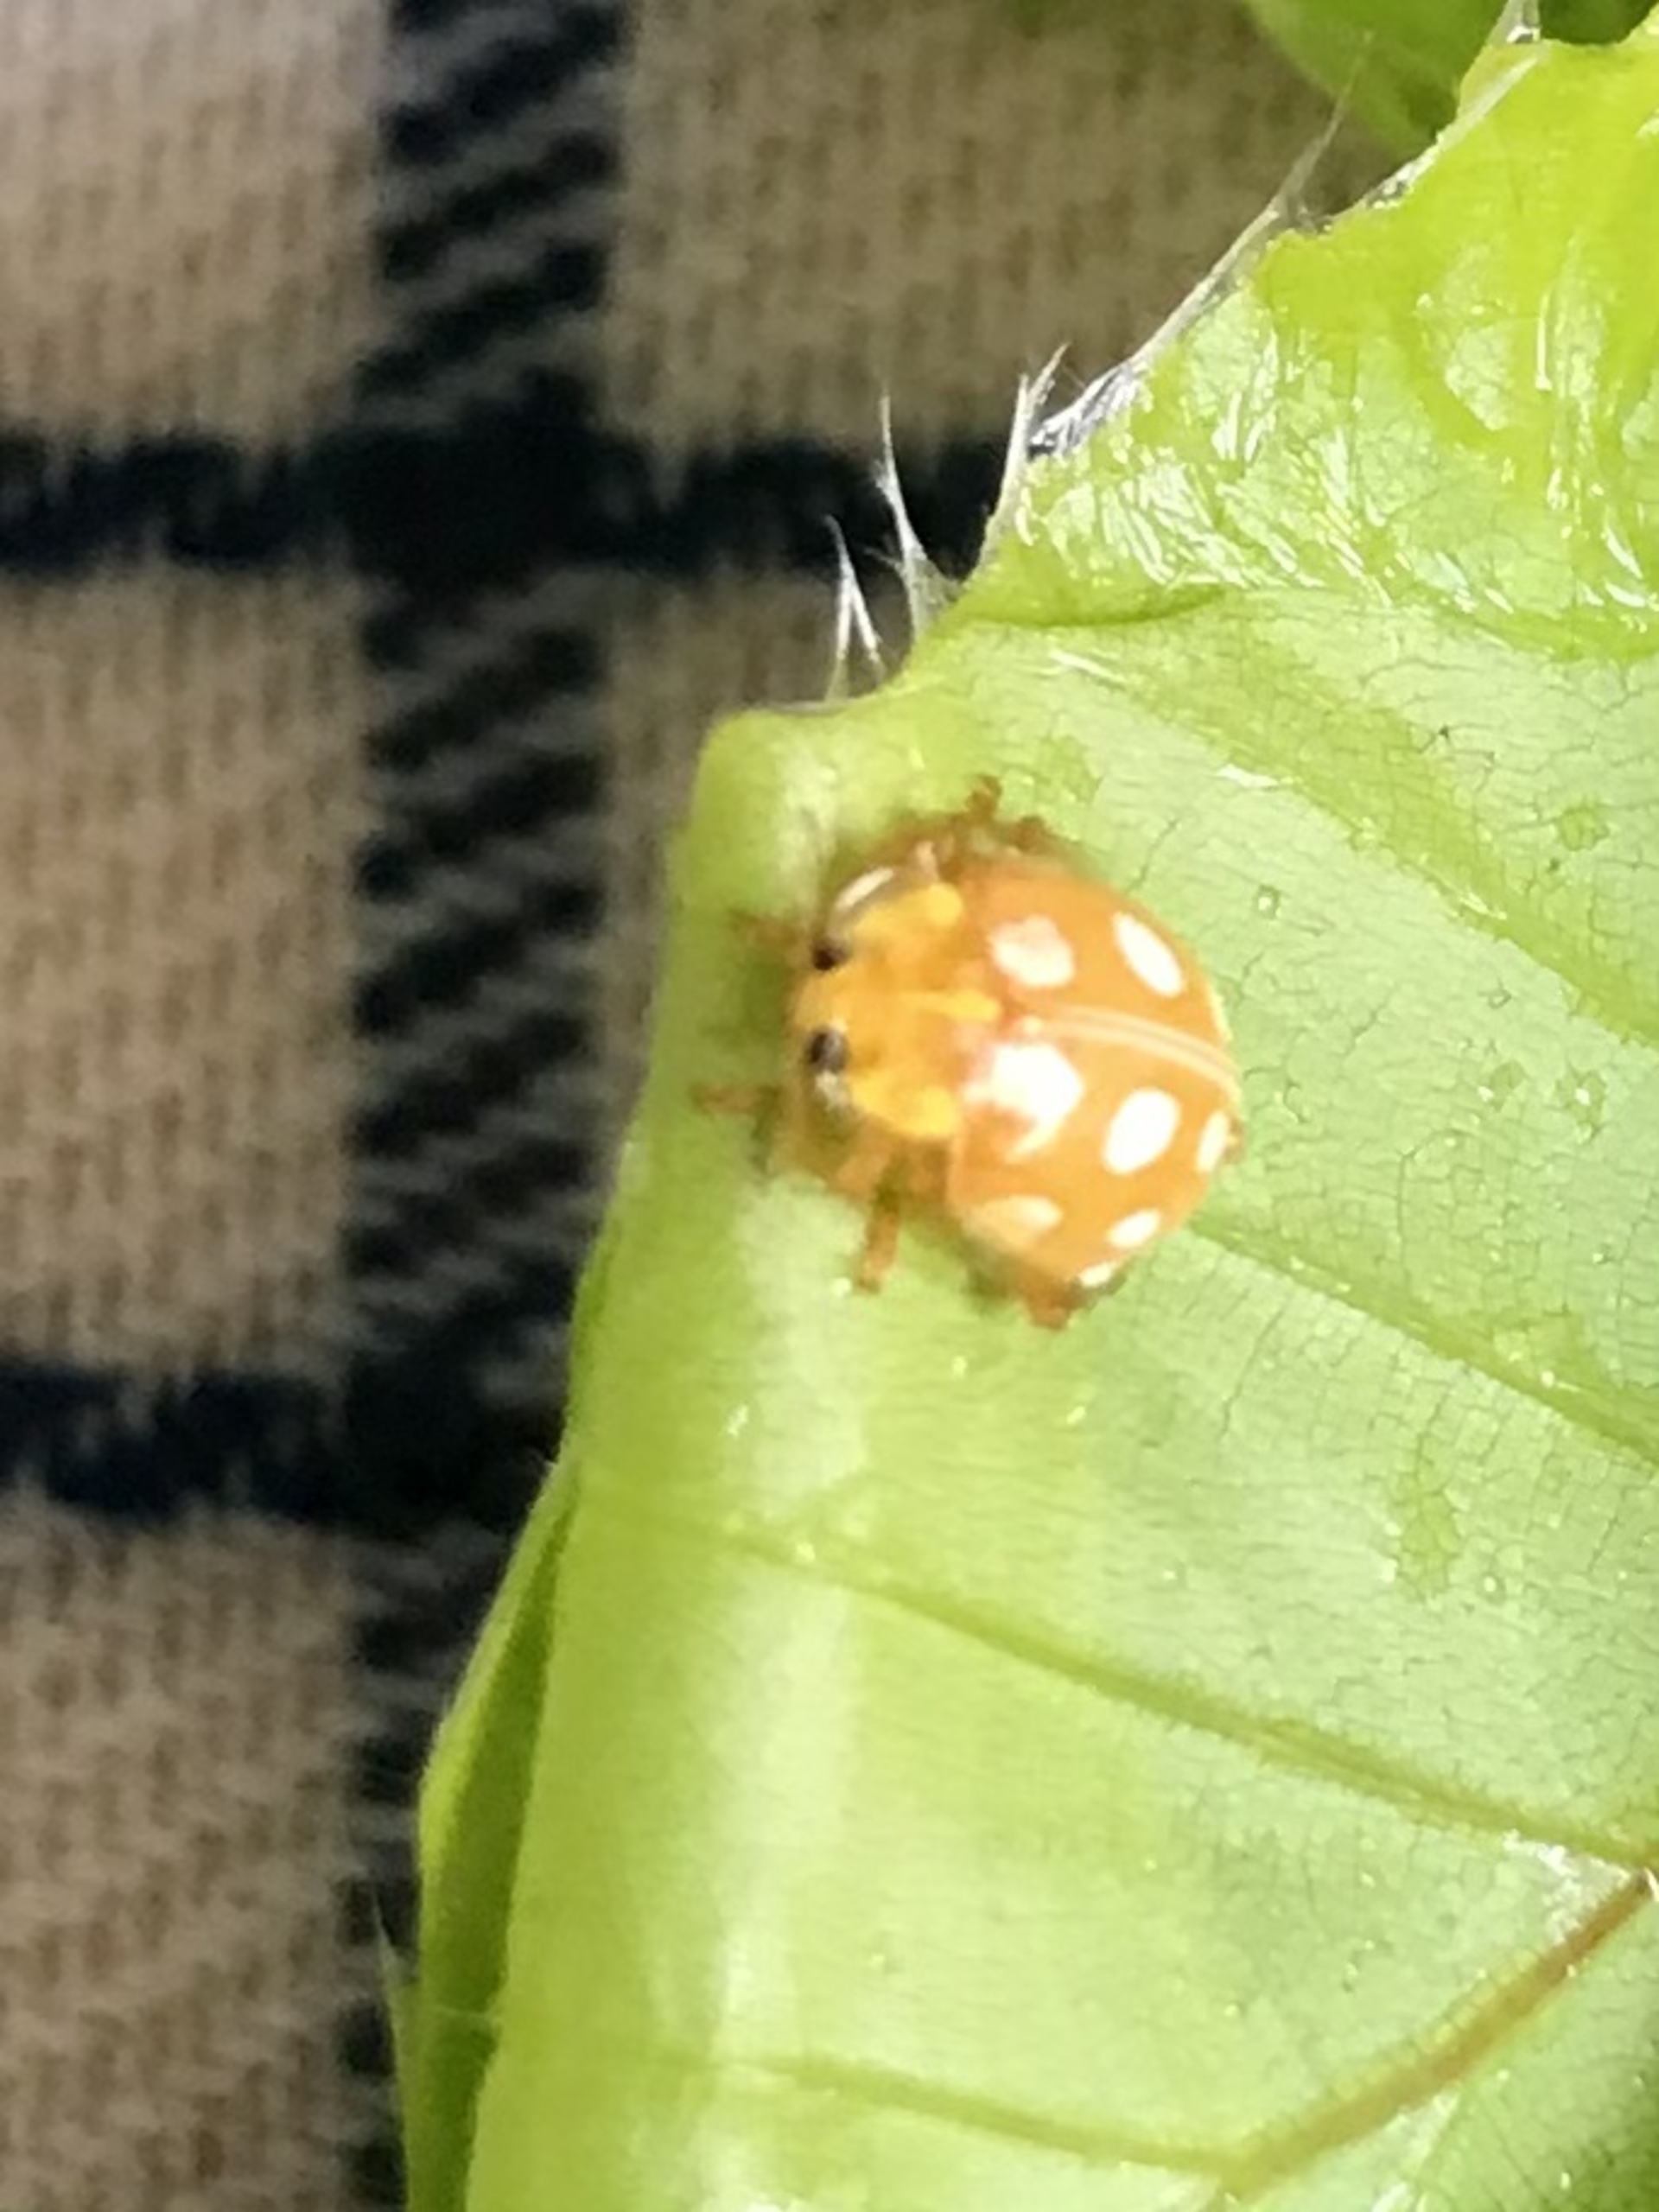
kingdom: Animalia
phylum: Arthropoda
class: Insecta
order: Coleoptera
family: Coccinellidae
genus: Halyzia
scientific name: Halyzia sedecimguttata
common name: Sekstenplettet mariehøne
